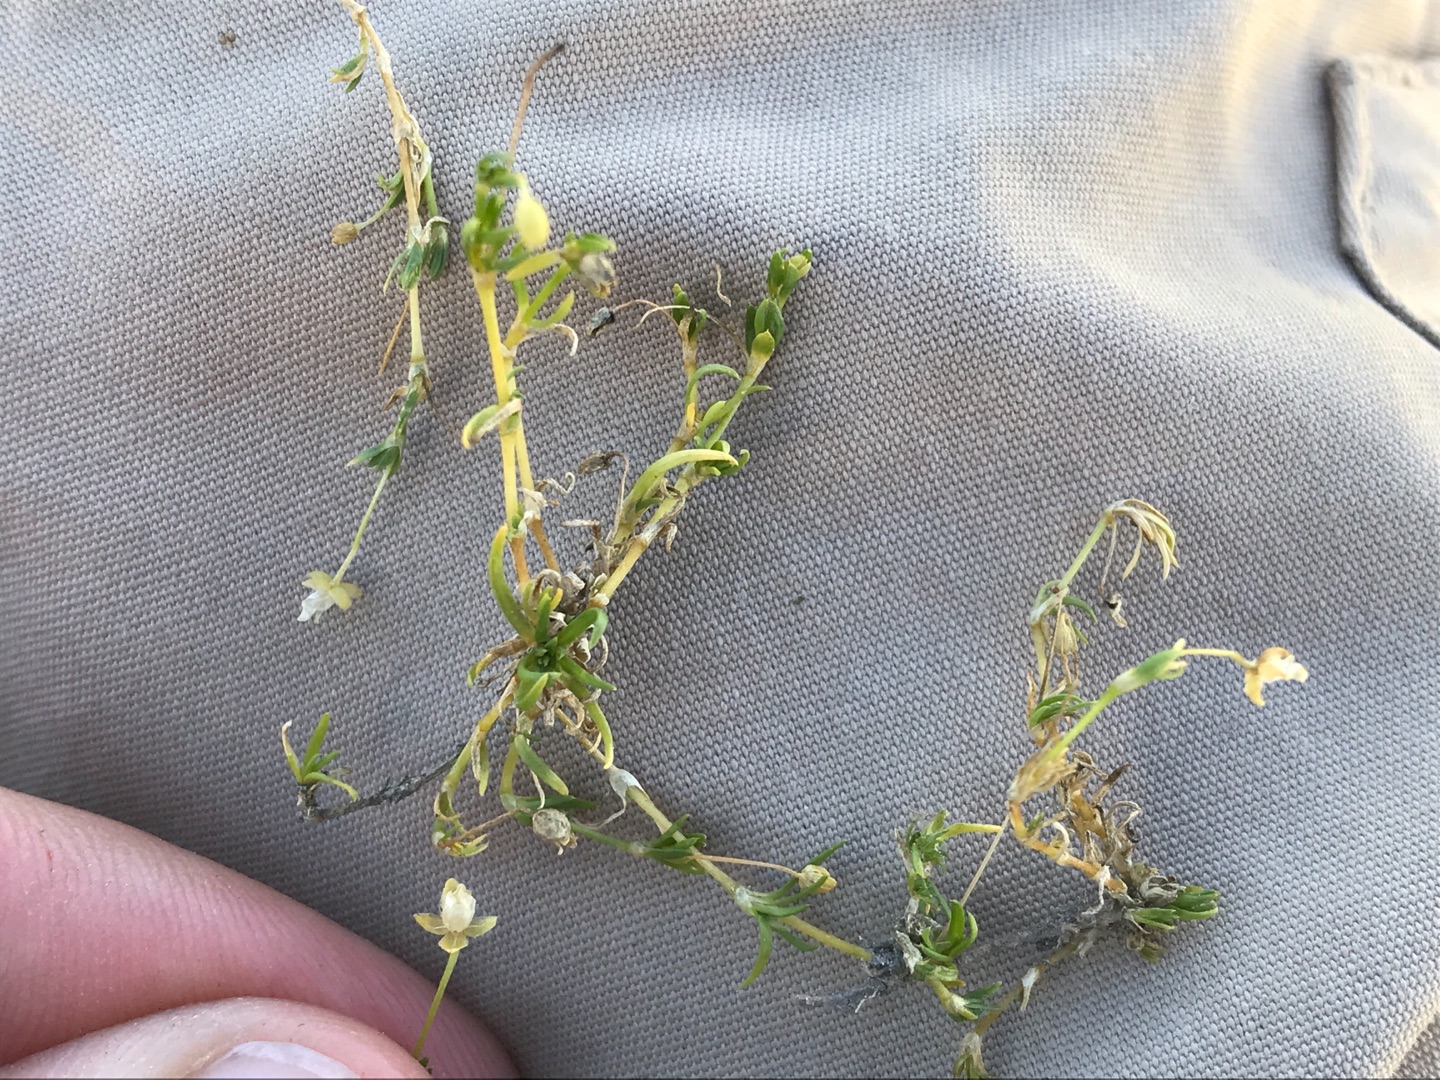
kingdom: Plantae
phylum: Tracheophyta
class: Magnoliopsida
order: Caryophyllales
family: Caryophyllaceae
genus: Sagina
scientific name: Sagina procumbens
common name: Almindelig firling
